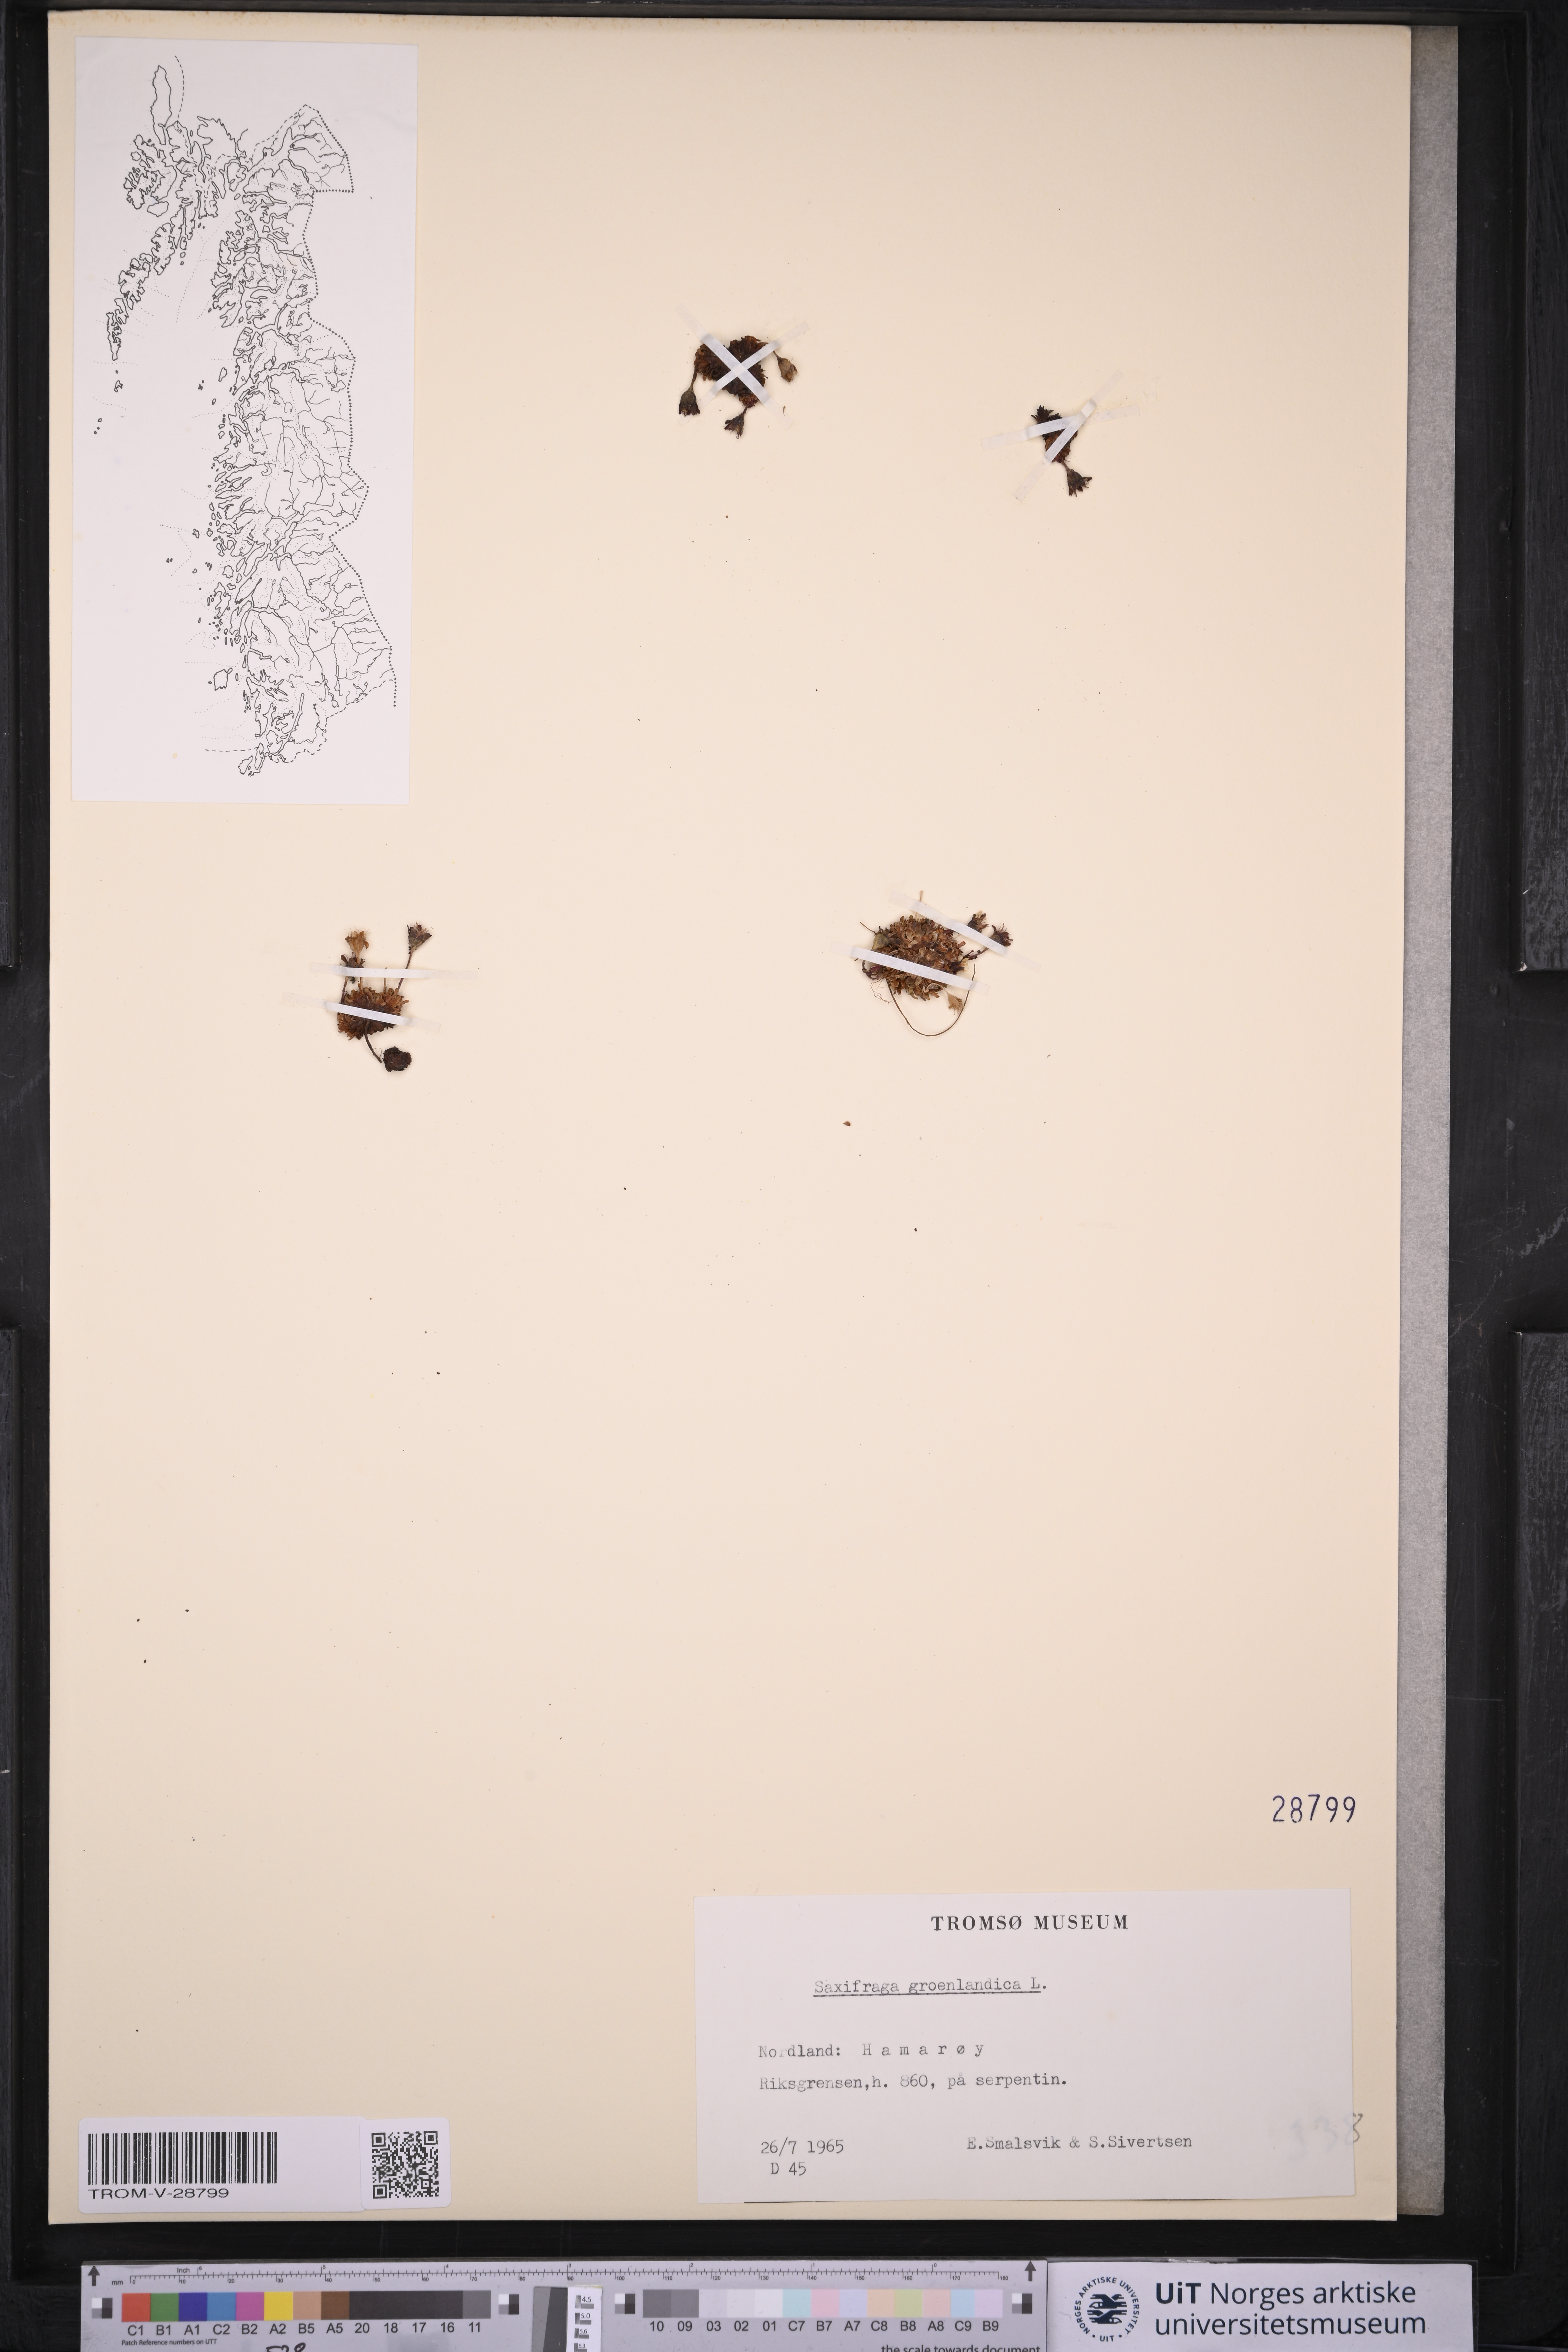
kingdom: Plantae
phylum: Tracheophyta
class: Magnoliopsida
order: Saxifragales
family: Saxifragaceae
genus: Saxifraga
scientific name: Saxifraga cespitosa
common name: Tufted saxifrage
